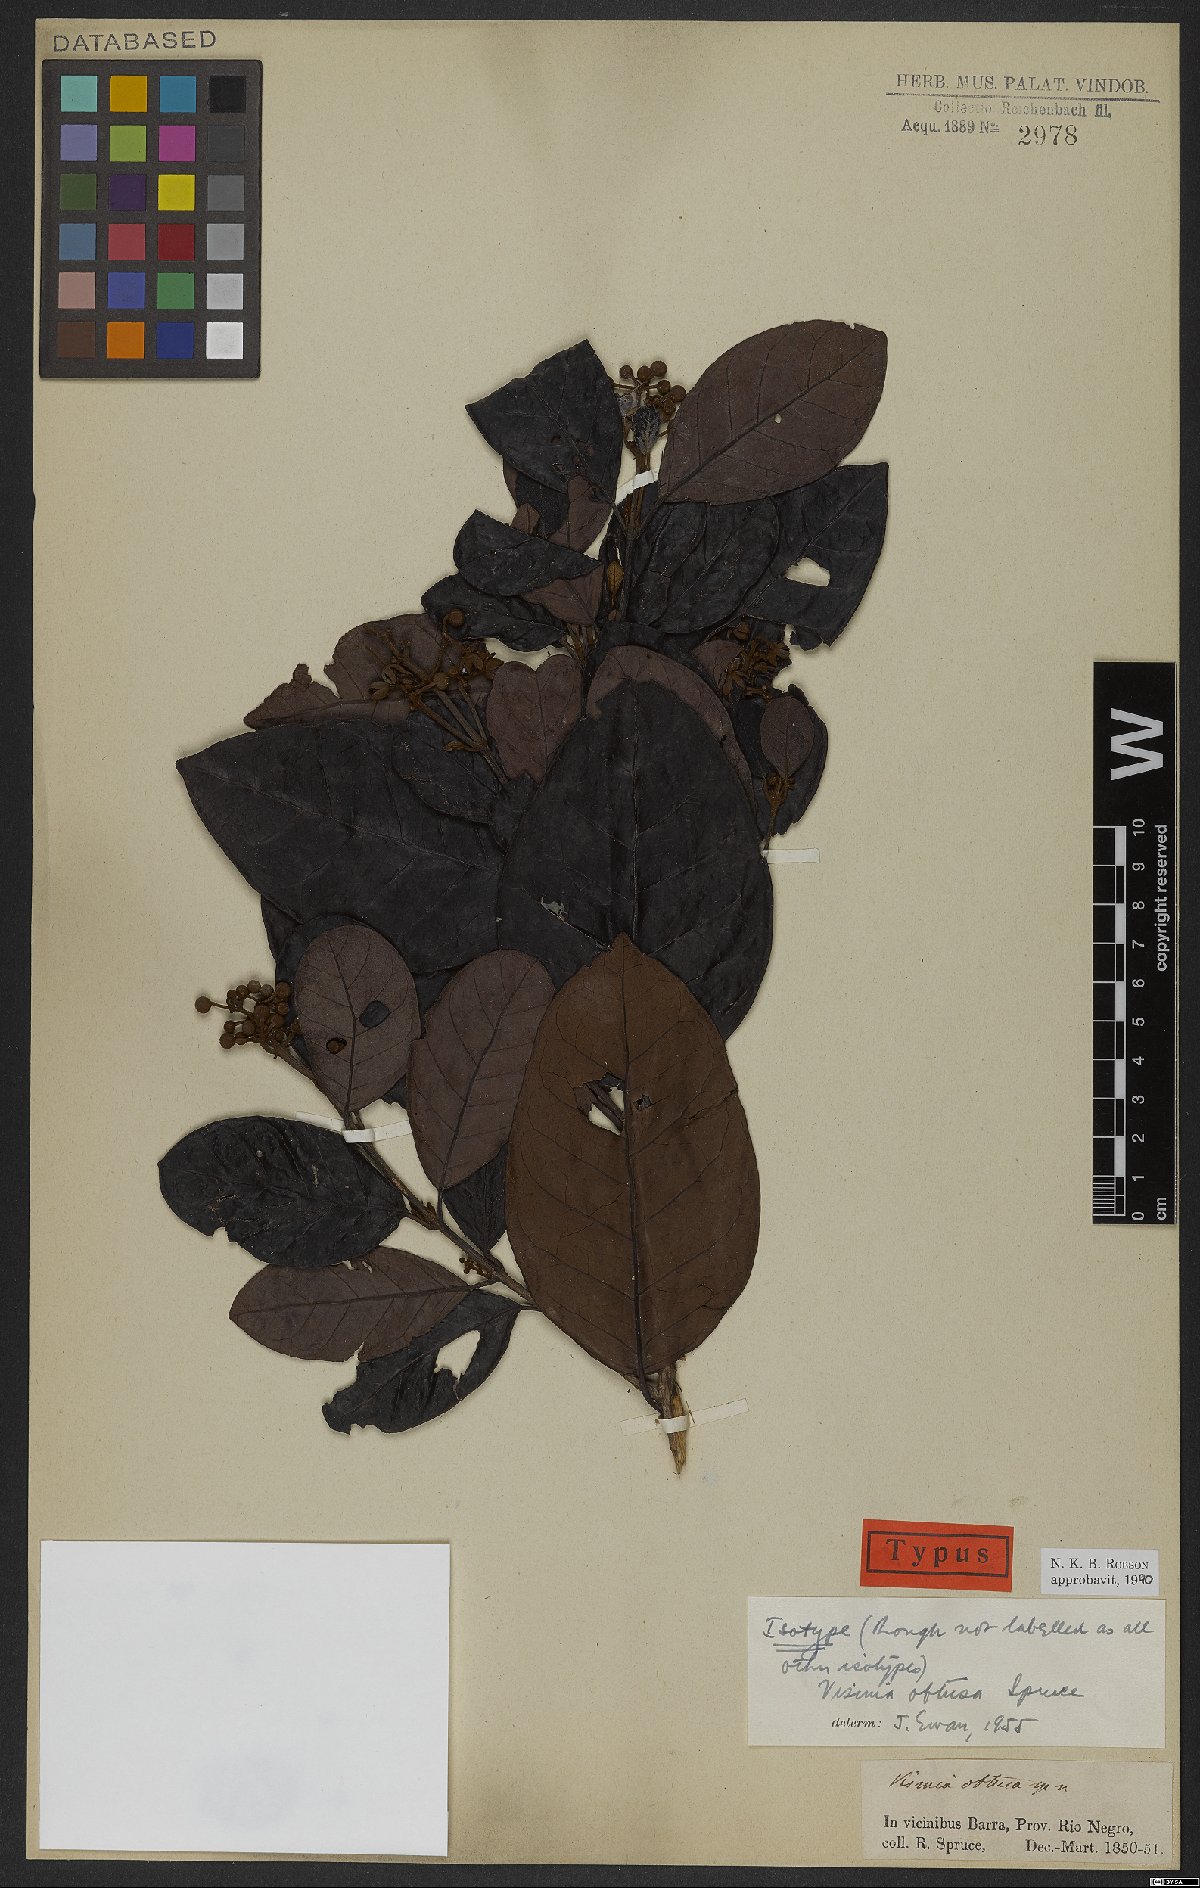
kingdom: Plantae
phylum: Tracheophyta
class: Magnoliopsida
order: Malpighiales
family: Hypericaceae
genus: Vismia
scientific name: Vismia obtusa
